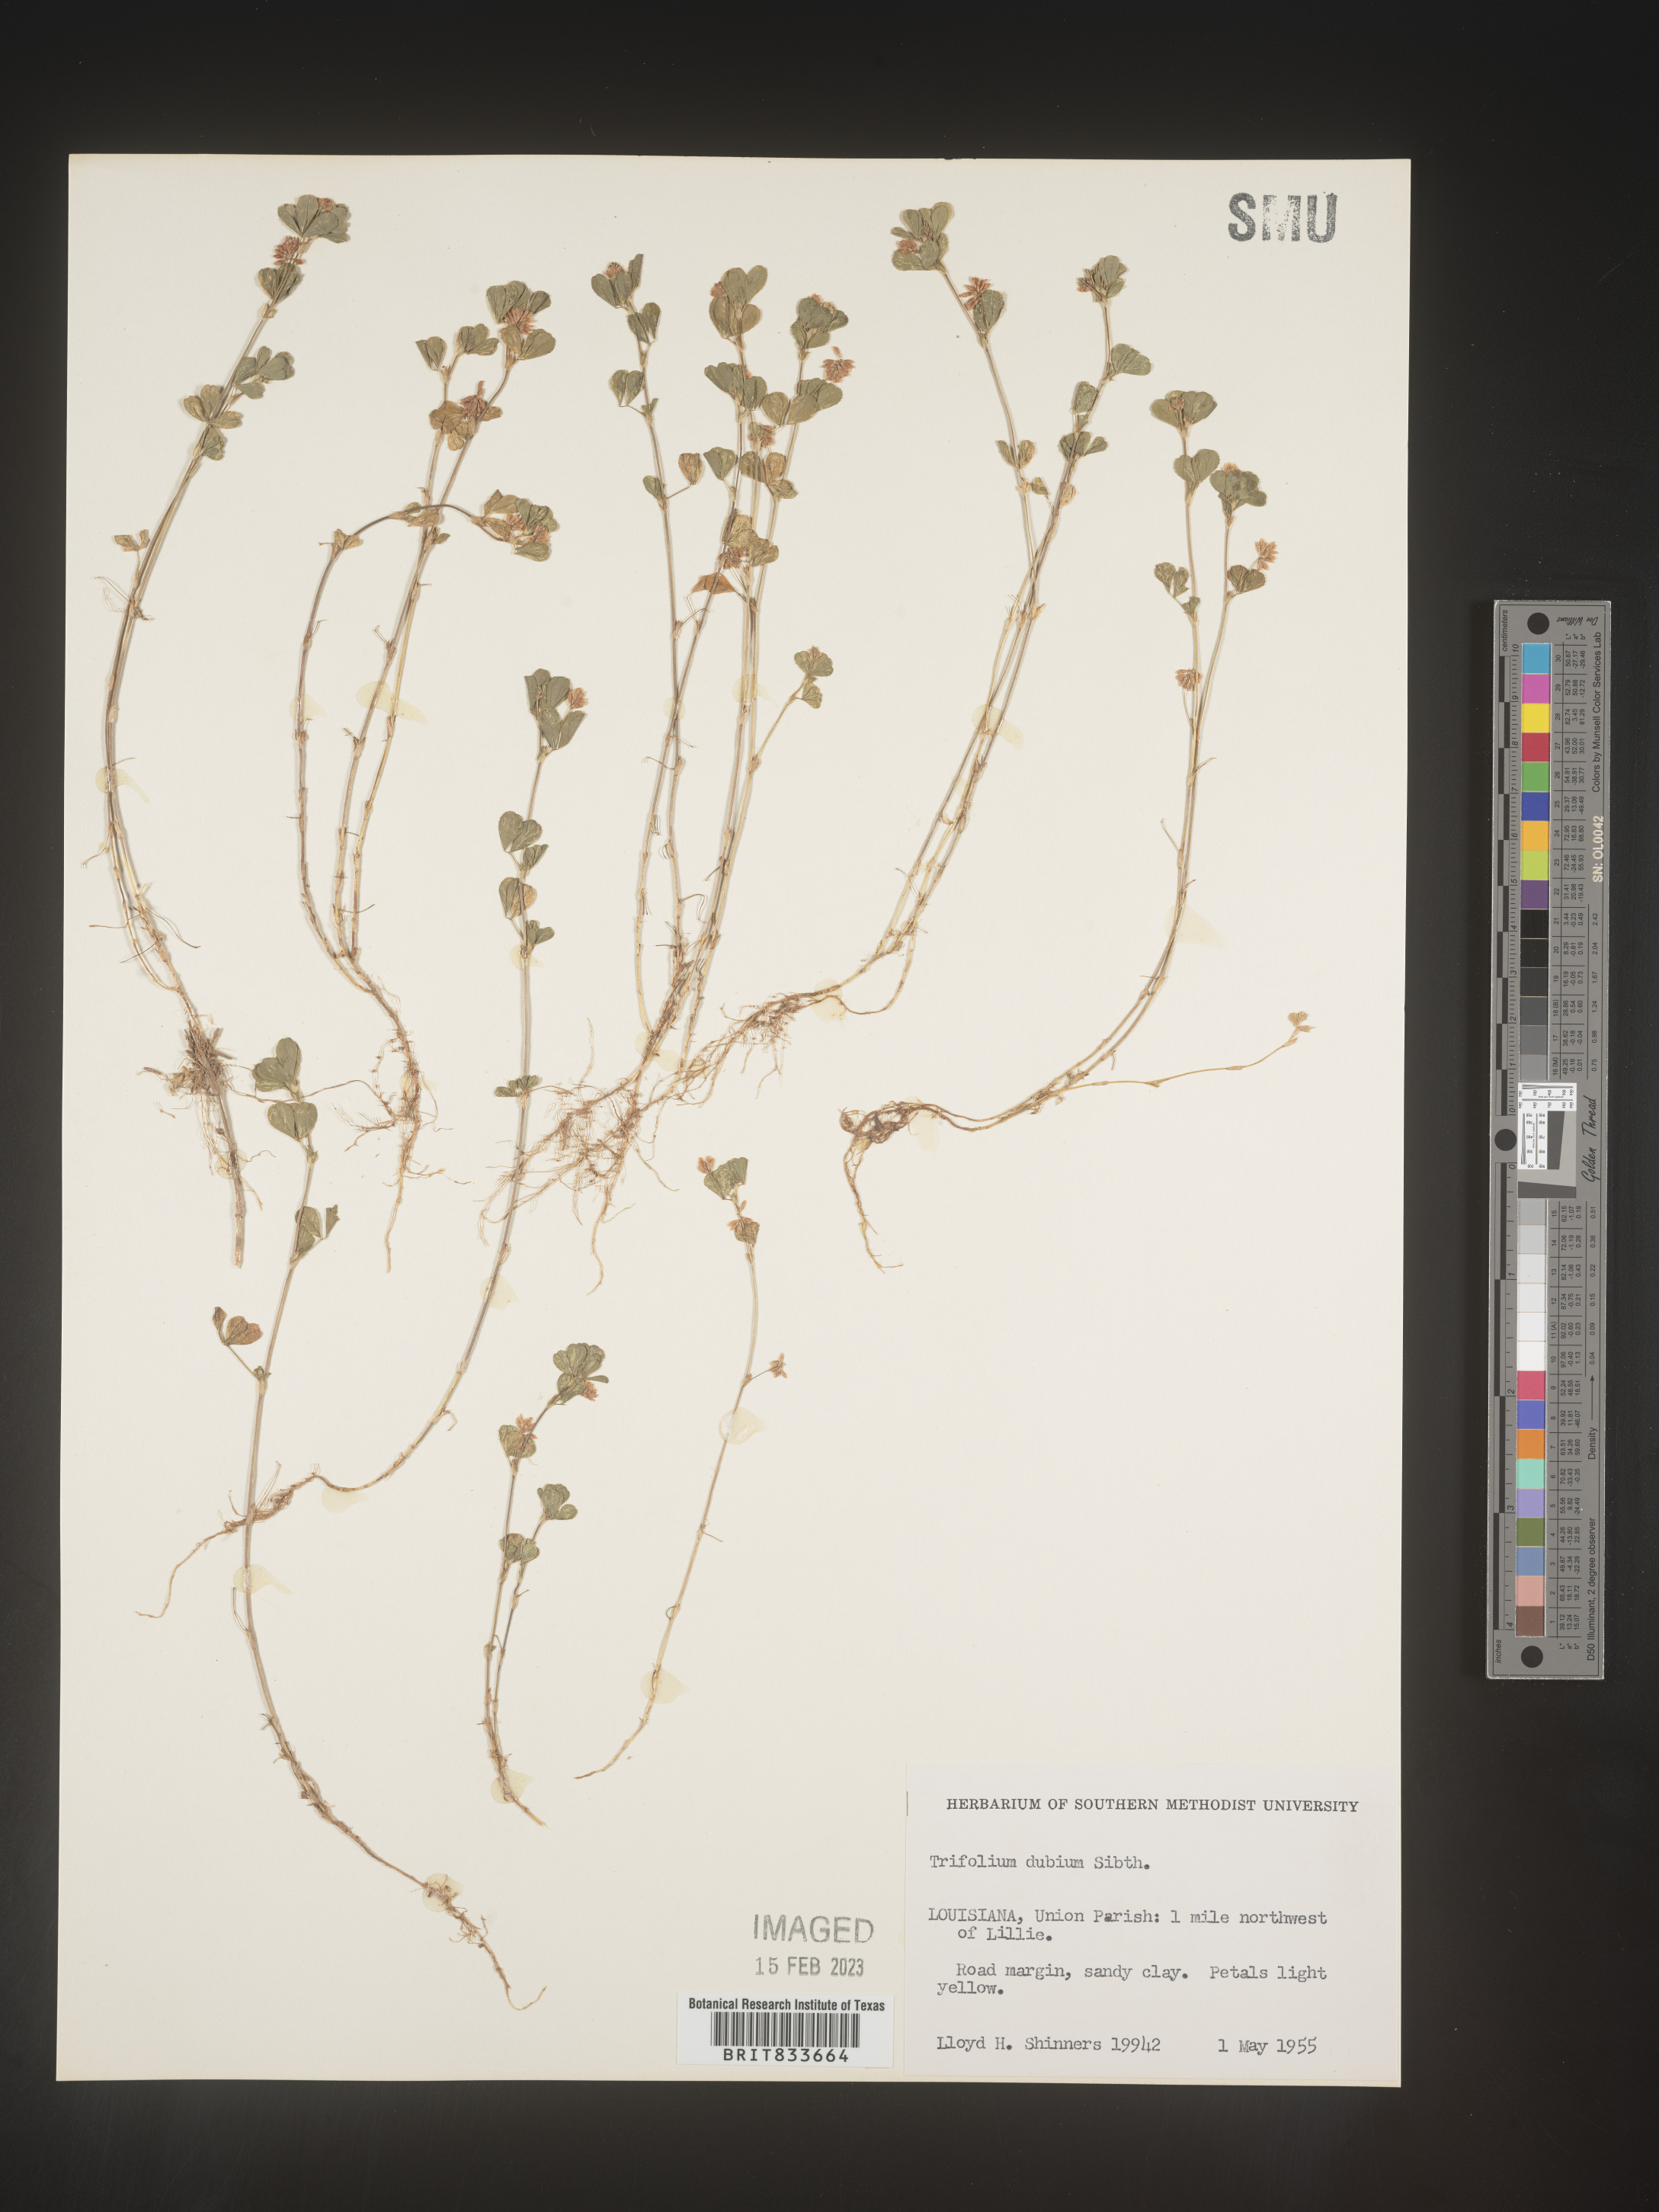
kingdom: Plantae
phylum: Tracheophyta
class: Magnoliopsida
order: Fabales
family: Fabaceae
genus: Trifolium
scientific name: Trifolium dubium
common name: Suckling clover
